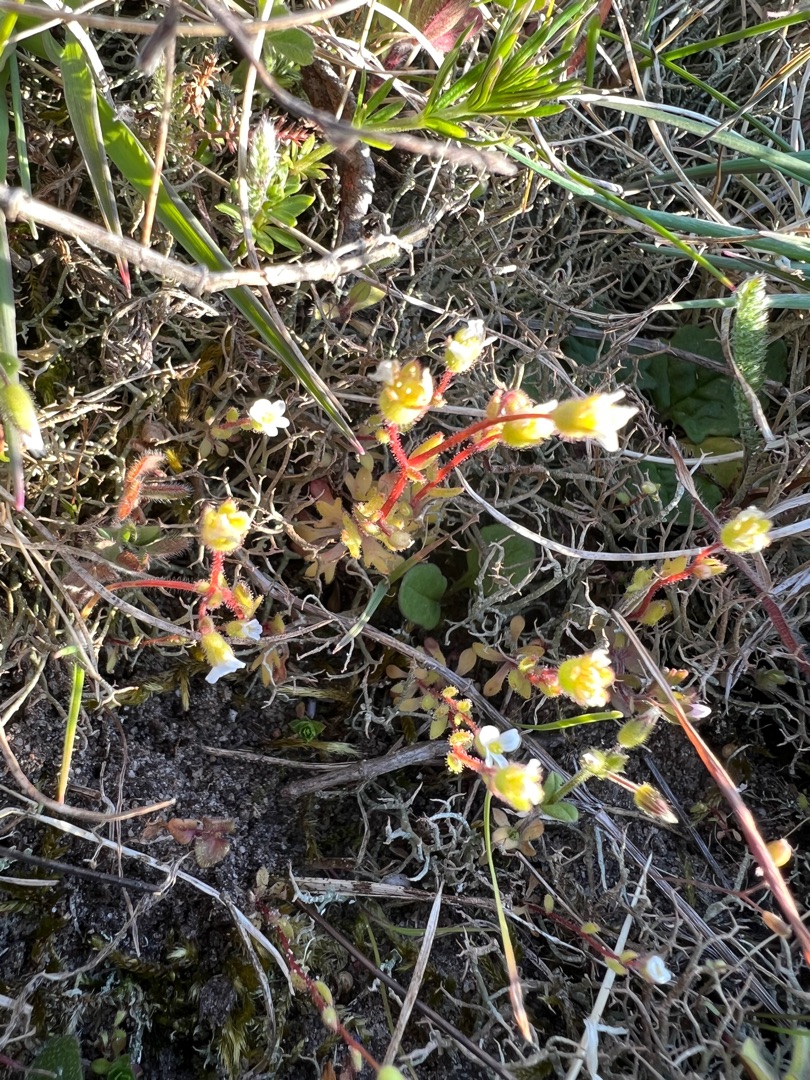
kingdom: Plantae
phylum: Tracheophyta
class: Magnoliopsida
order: Saxifragales
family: Saxifragaceae
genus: Saxifraga
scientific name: Saxifraga tridactylites
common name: Trekløft-stenbræk
